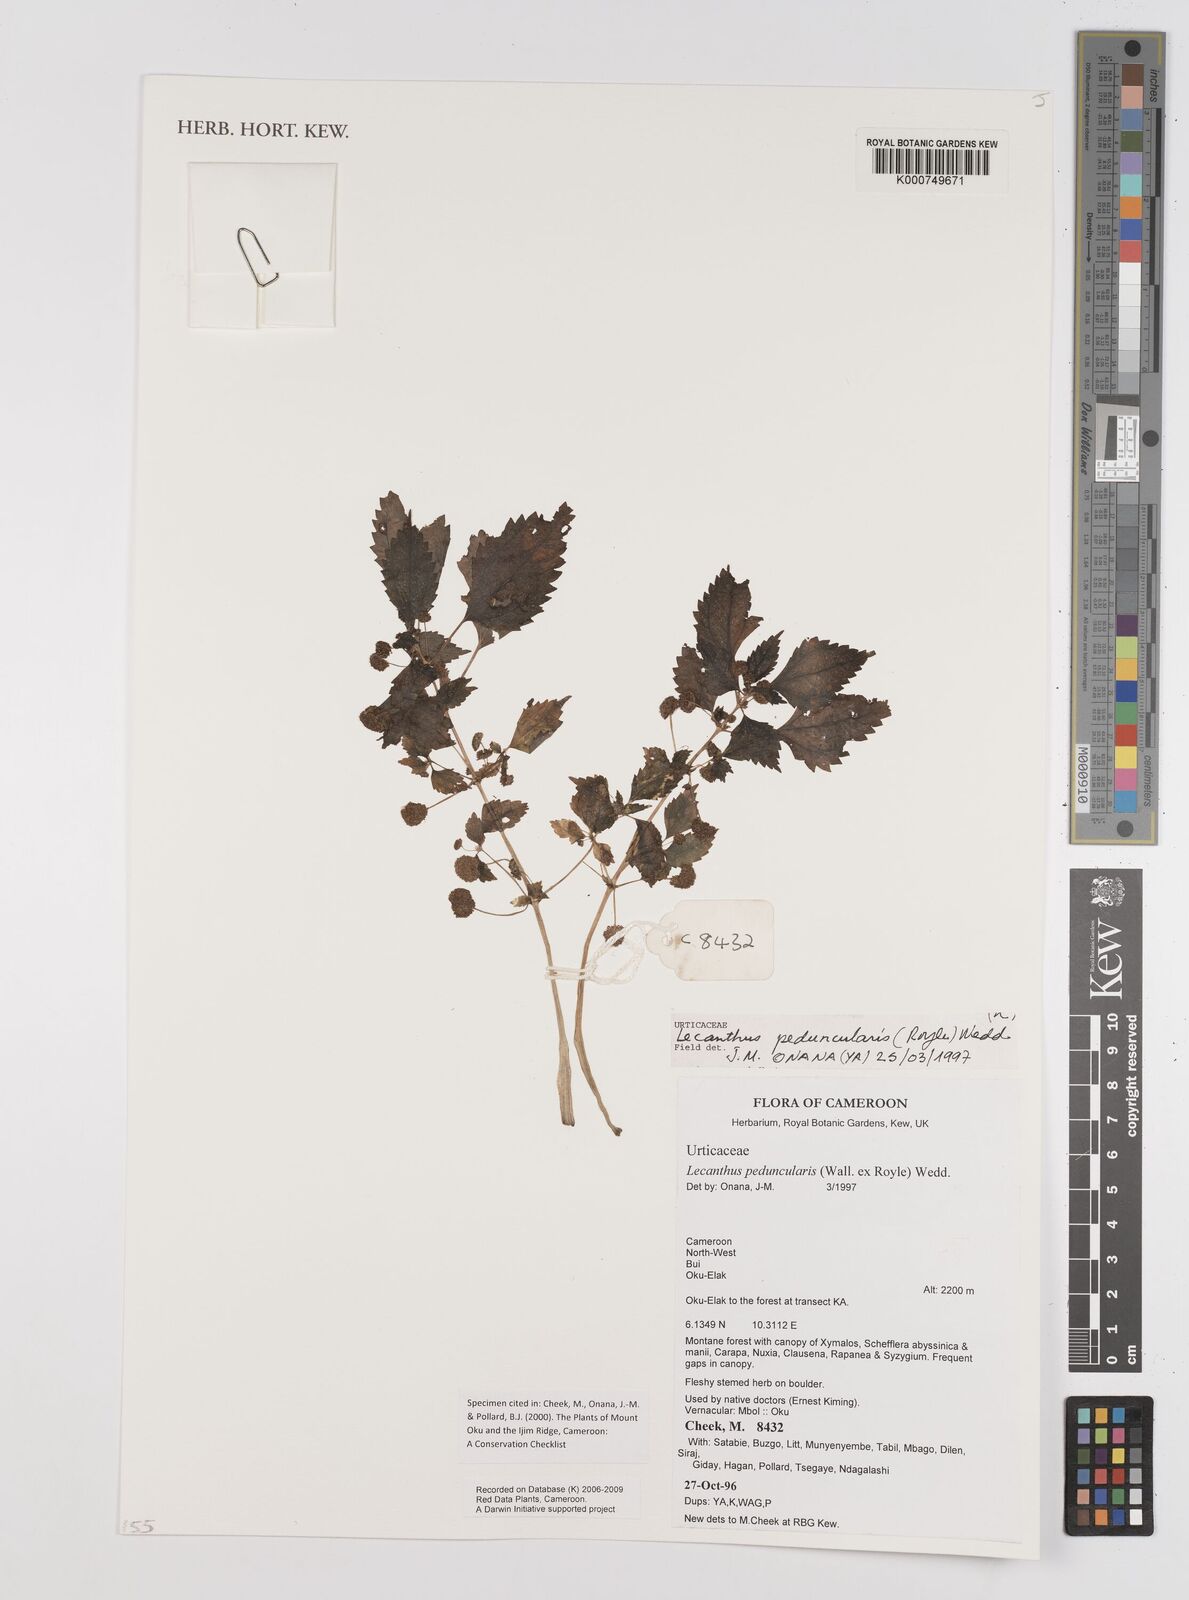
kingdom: Plantae
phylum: Tracheophyta
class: Magnoliopsida
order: Rosales
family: Urticaceae
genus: Lecanthus
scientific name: Lecanthus peduncularis
